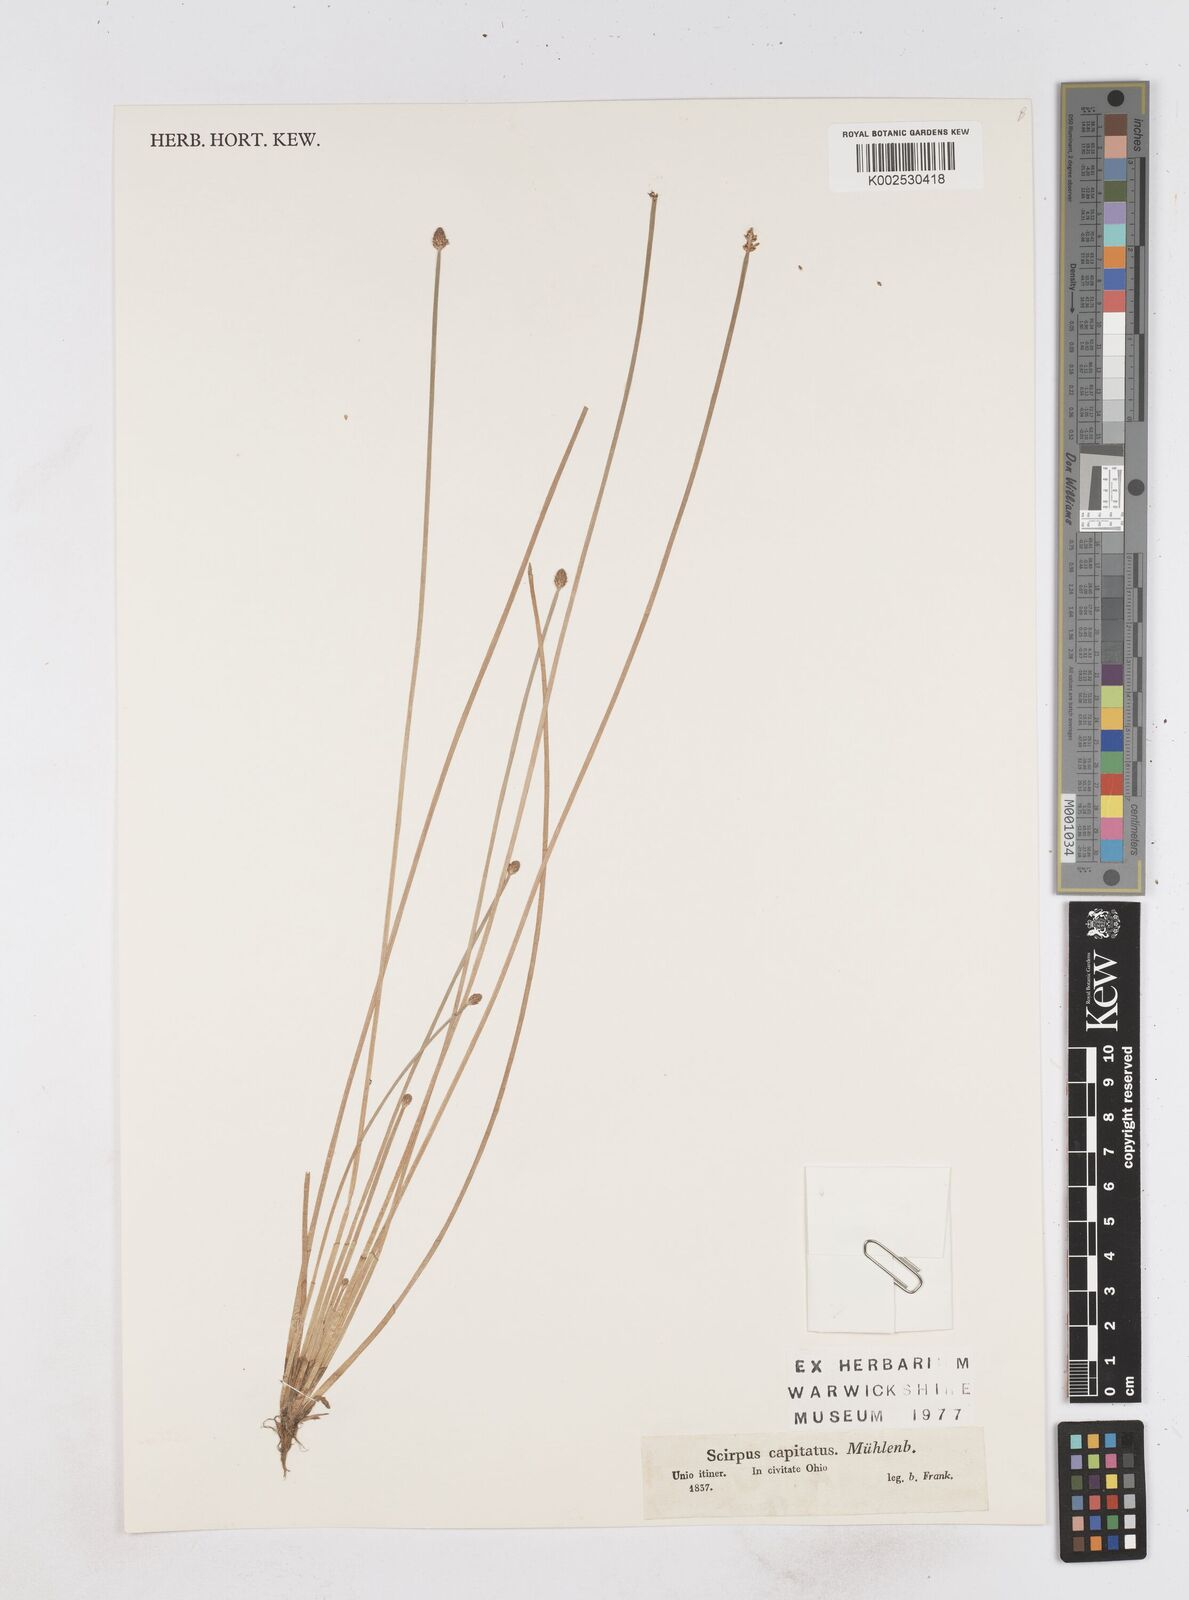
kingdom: Plantae
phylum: Tracheophyta
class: Liliopsida
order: Poales
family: Cyperaceae
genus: Eleocharis
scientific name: Eleocharis albida
